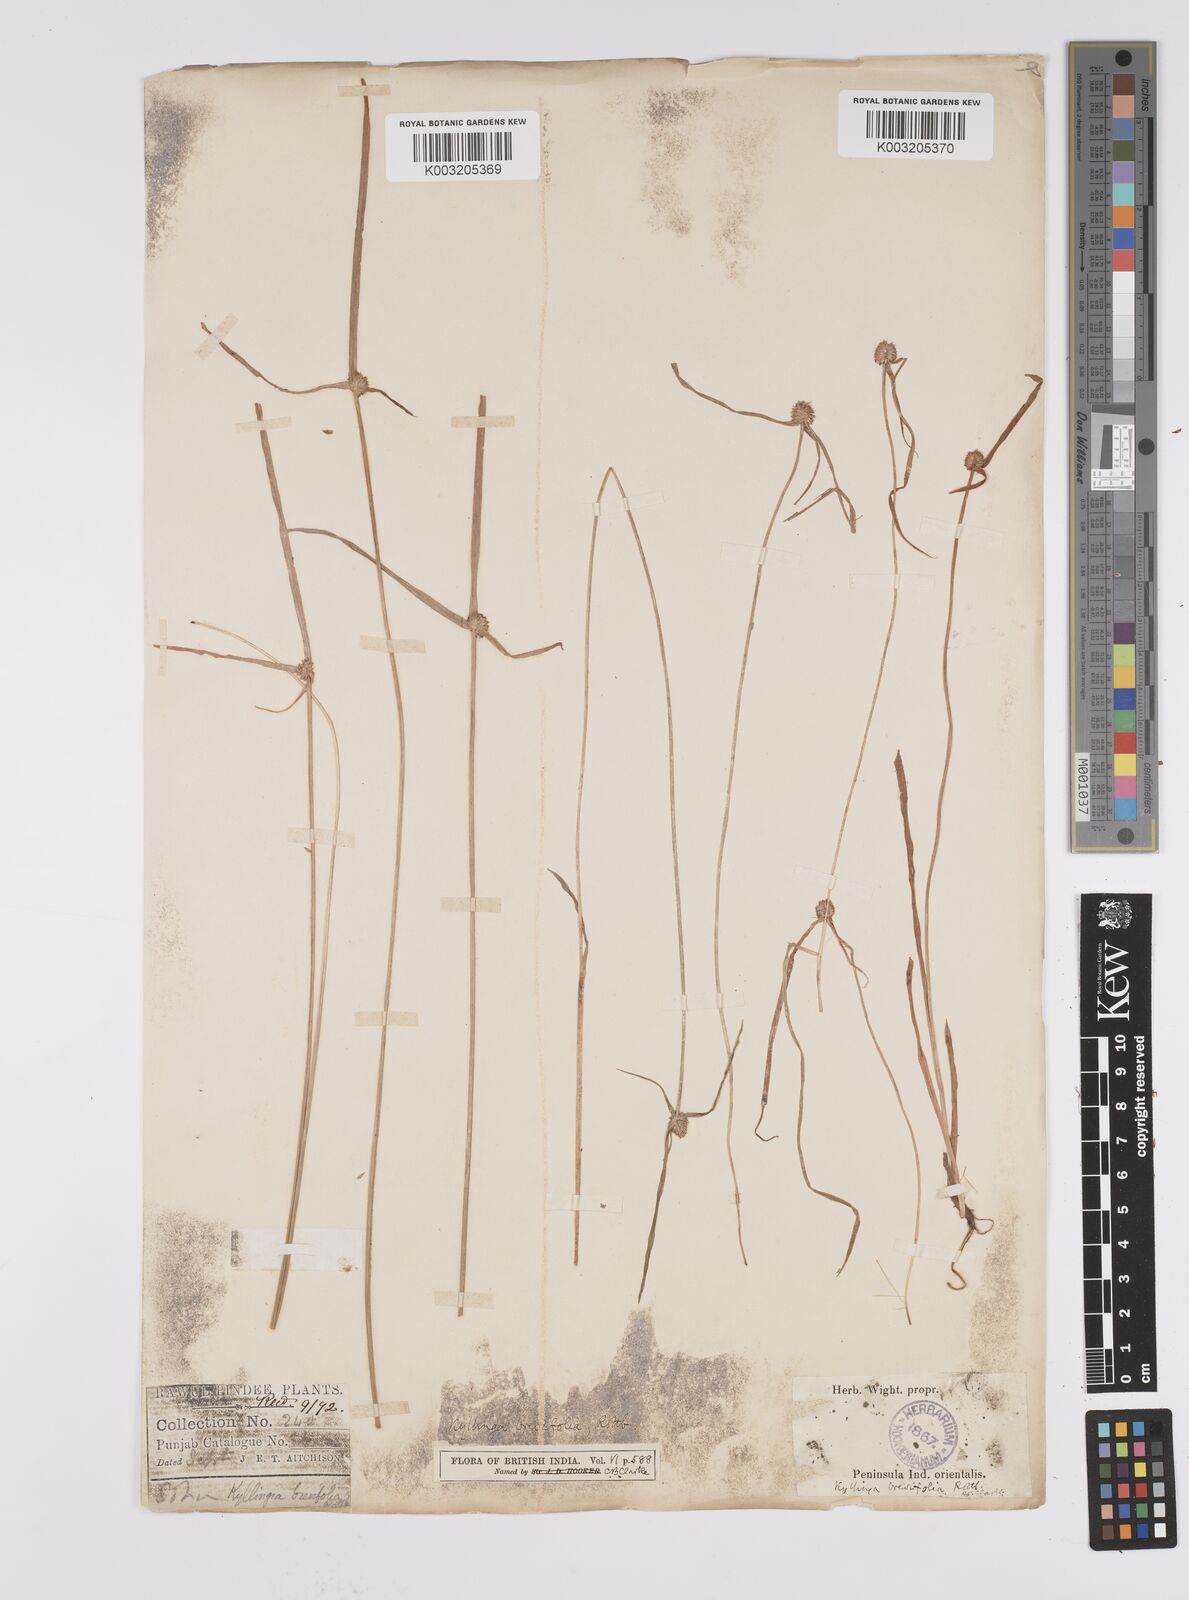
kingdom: Plantae
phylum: Tracheophyta
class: Liliopsida
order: Poales
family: Cyperaceae
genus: Cyperus
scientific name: Cyperus brevifolius
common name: Globe kyllinga
